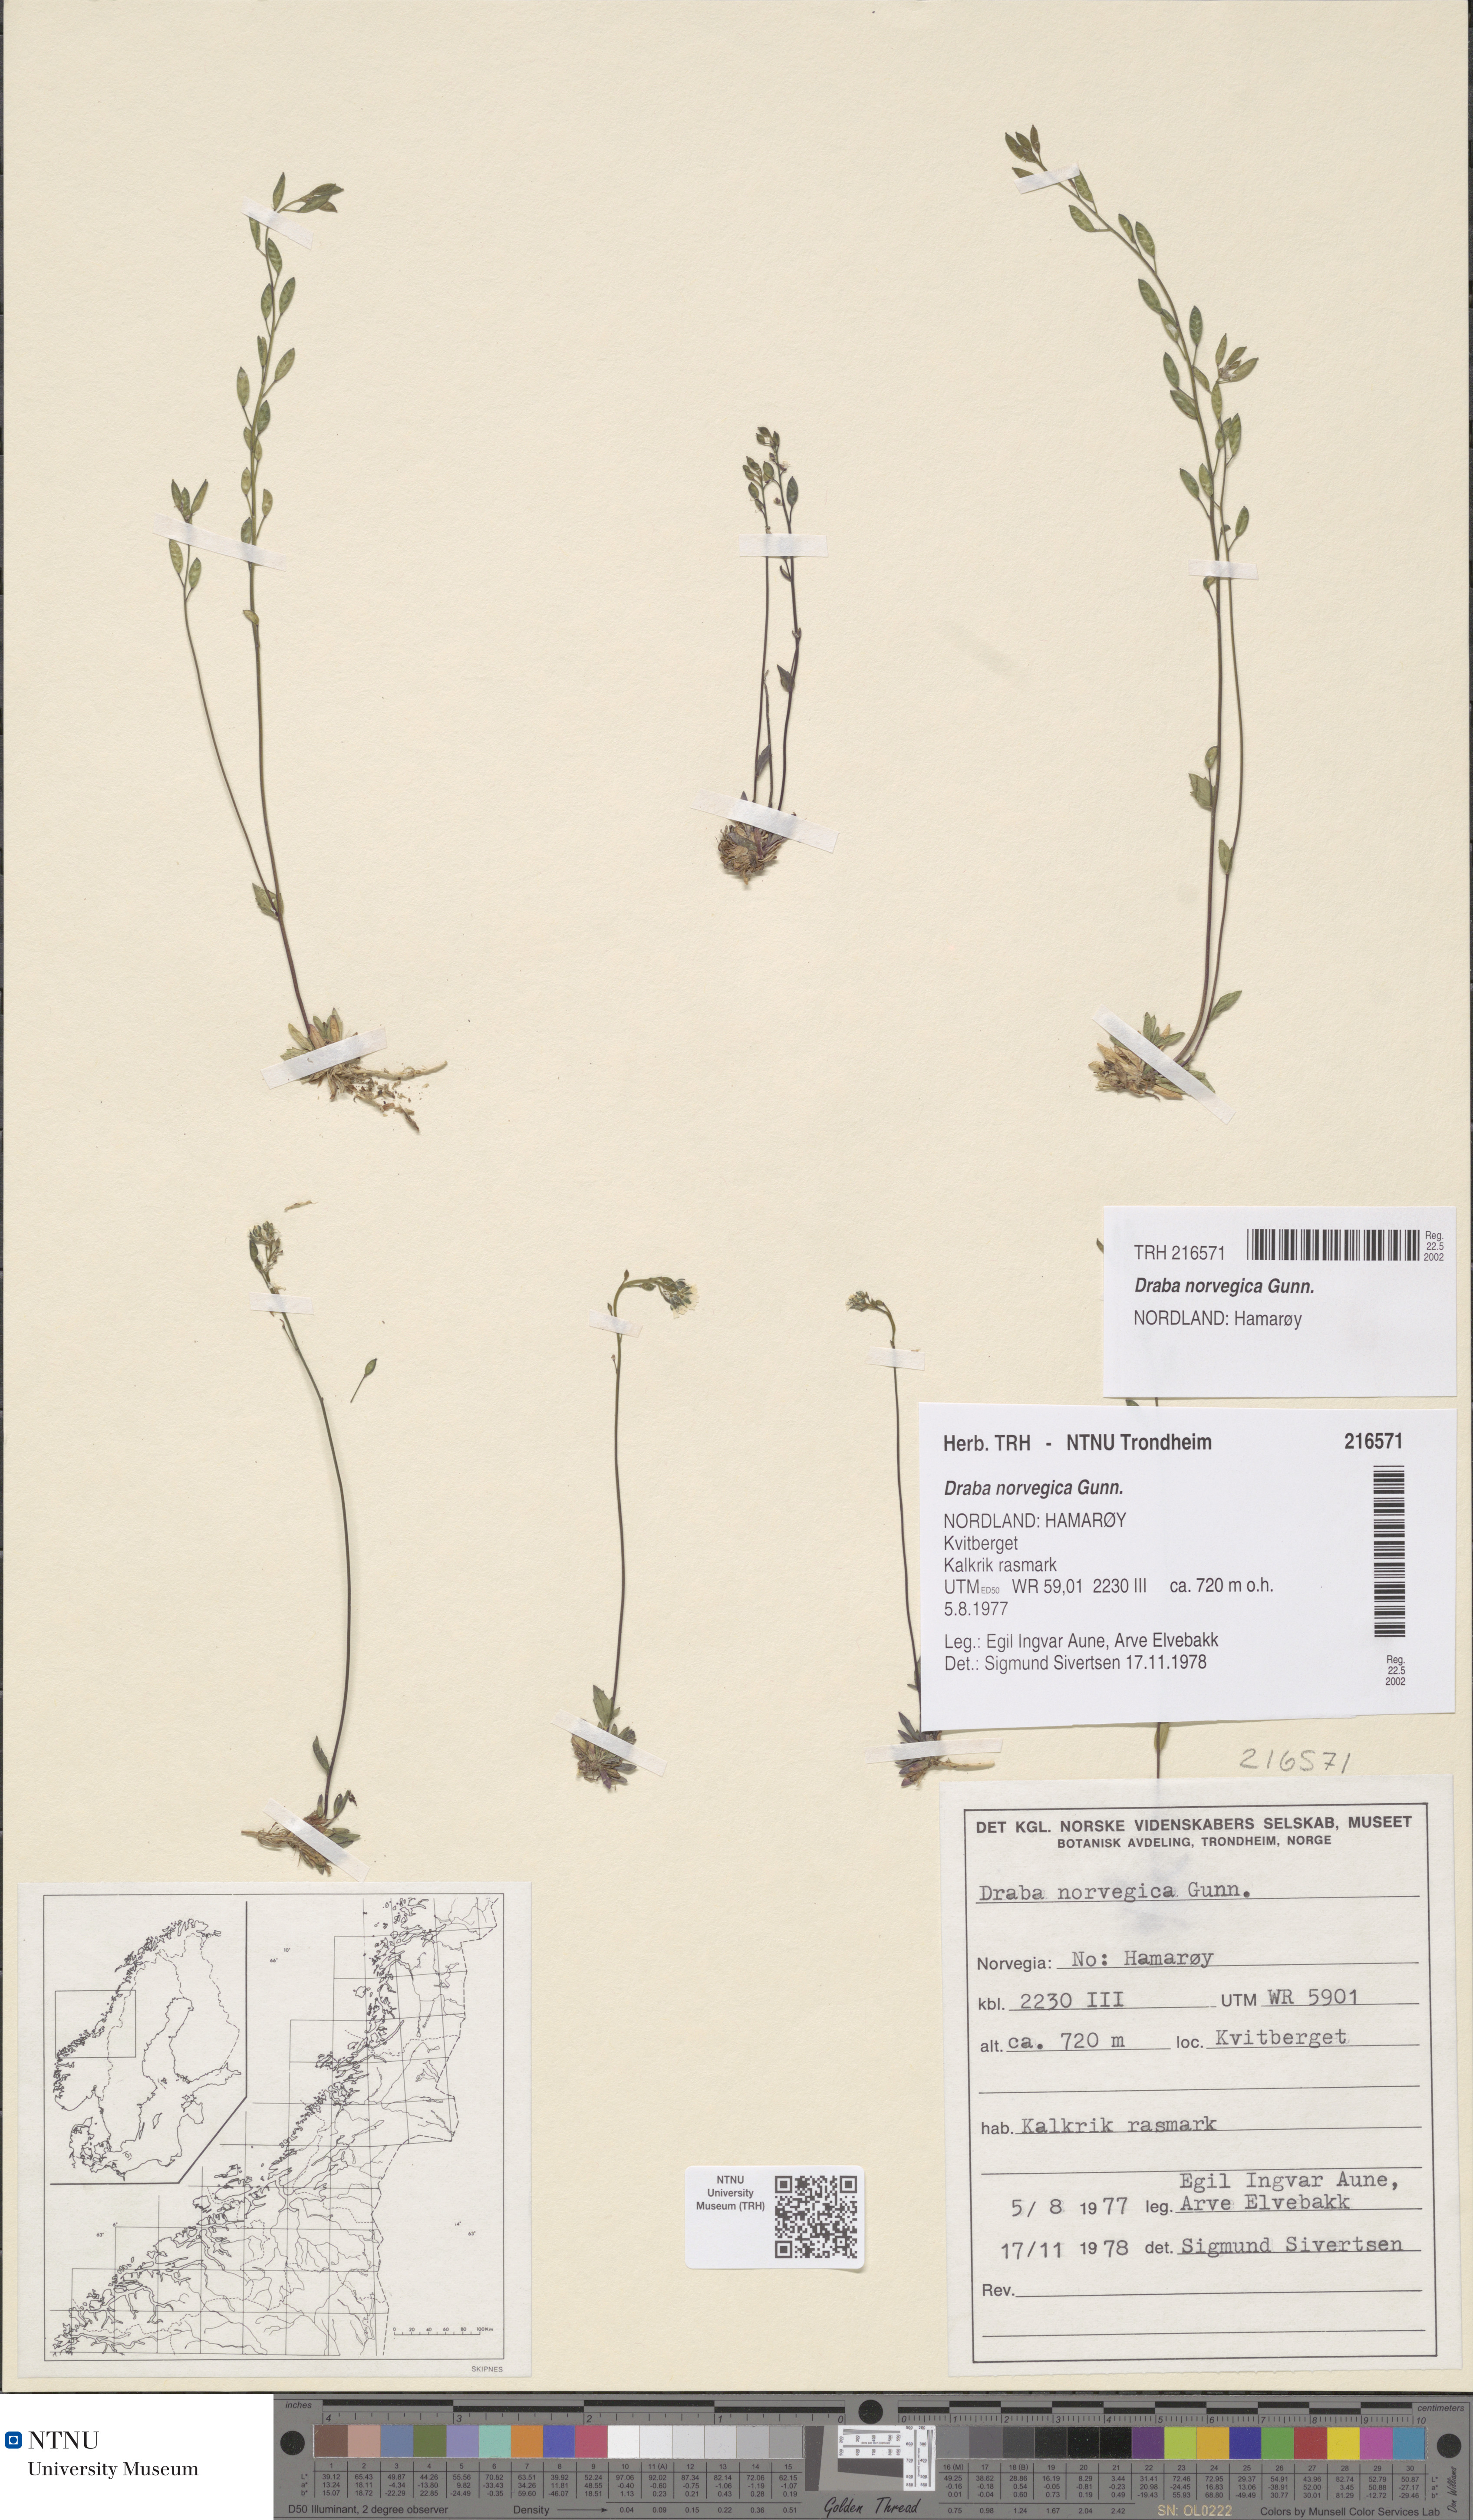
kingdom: Plantae
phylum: Tracheophyta
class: Magnoliopsida
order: Brassicales
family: Brassicaceae
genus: Draba
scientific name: Draba norvegica
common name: Rock whitlowgrass
